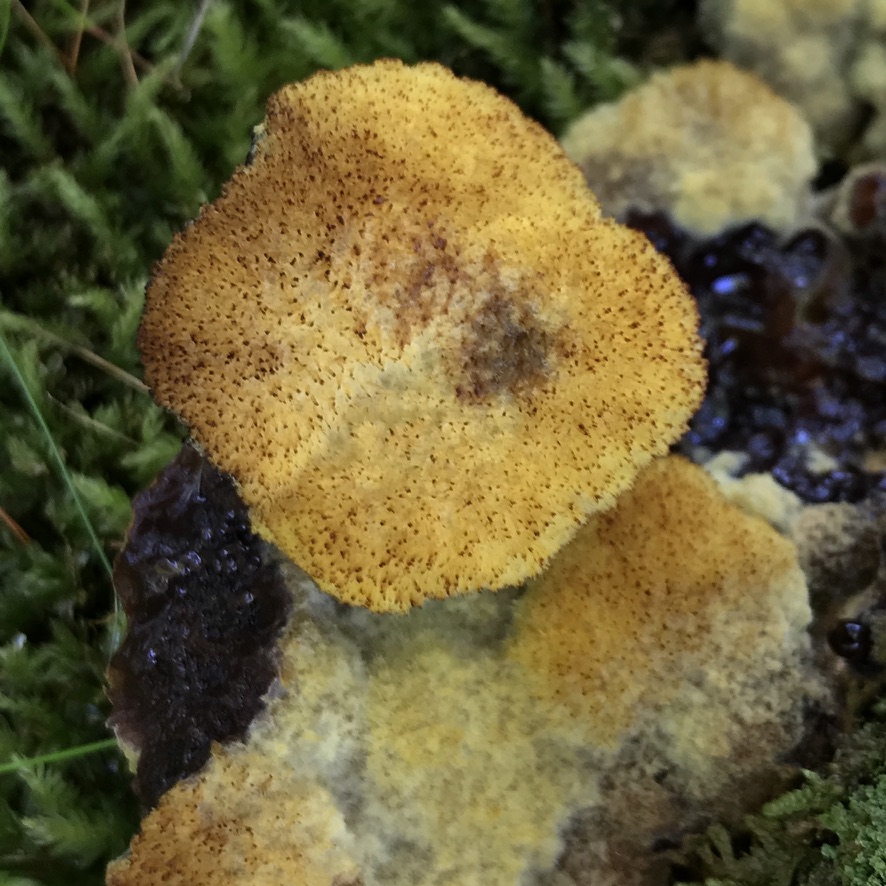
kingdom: Fungi
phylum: Basidiomycota
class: Agaricomycetes
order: Polyporales
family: Laetiporaceae
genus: Phaeolus
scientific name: Phaeolus schweinitzii
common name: brunporesvamp
